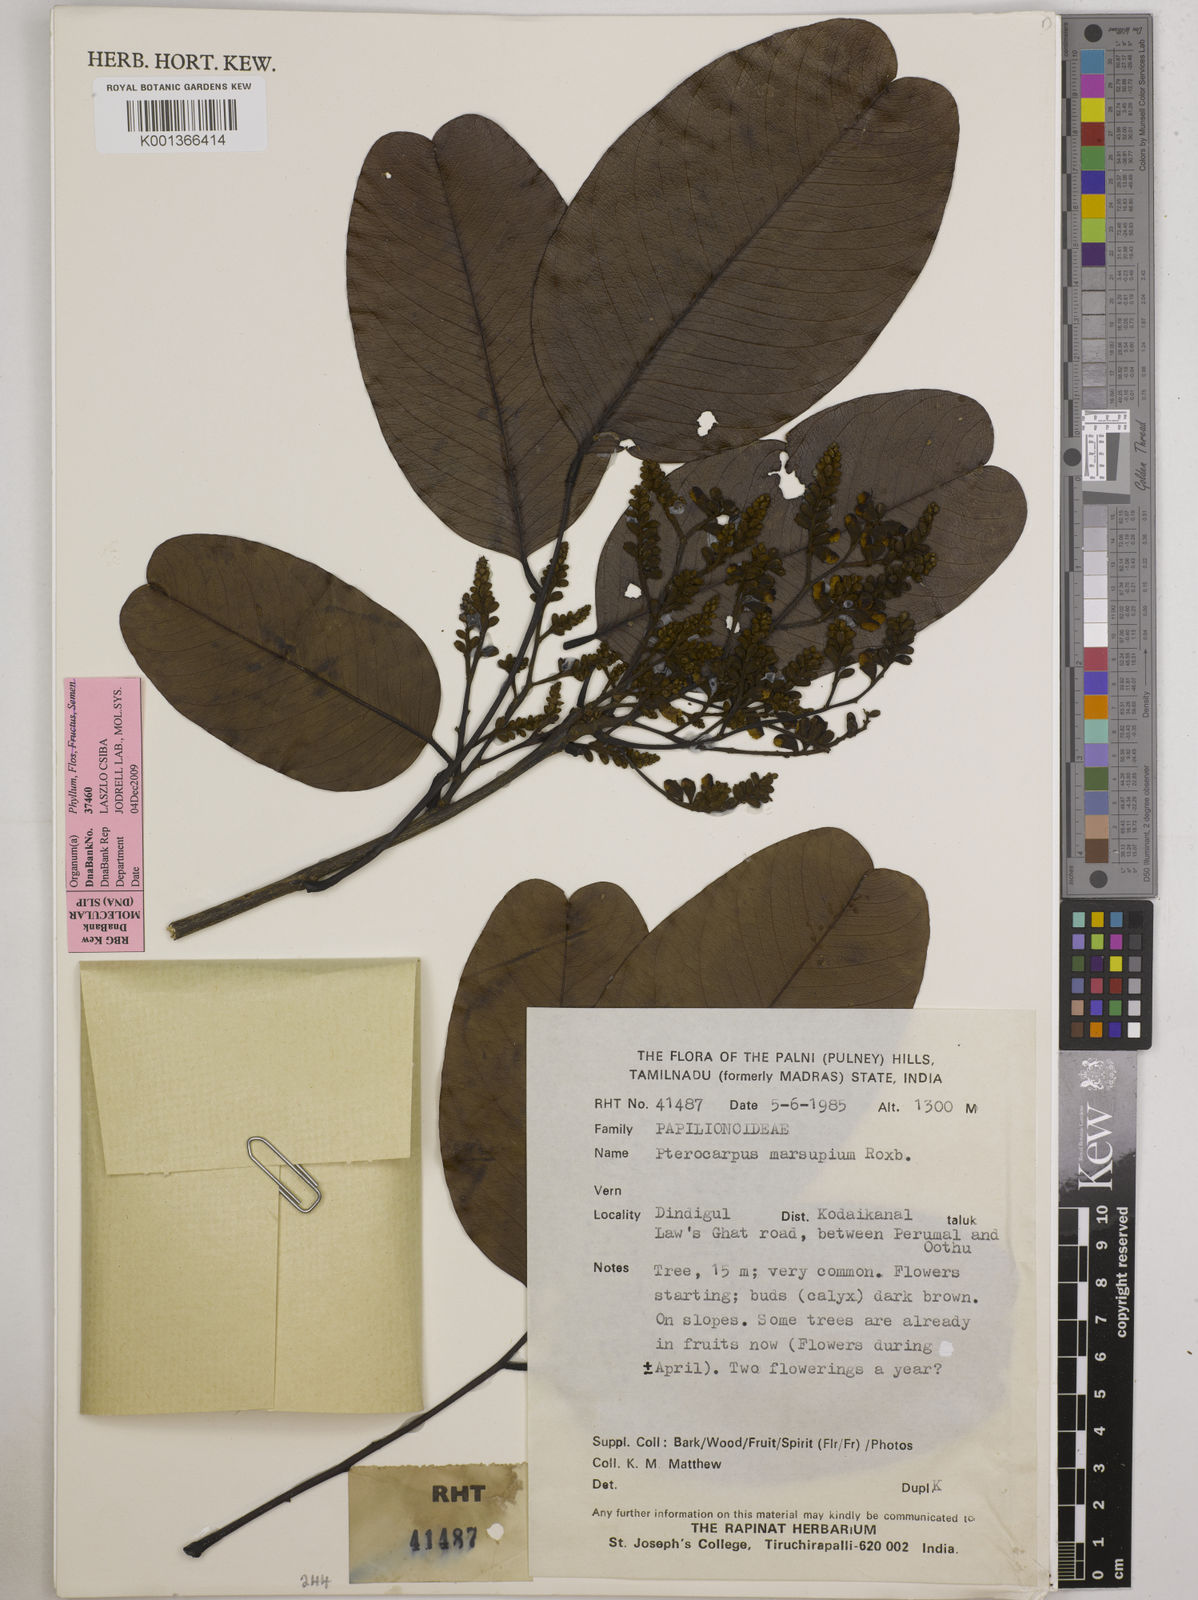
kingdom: Plantae
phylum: Tracheophyta
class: Magnoliopsida
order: Fabales
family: Fabaceae
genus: Pterocarpus
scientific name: Pterocarpus marsupium
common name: East indian/malabar kino
